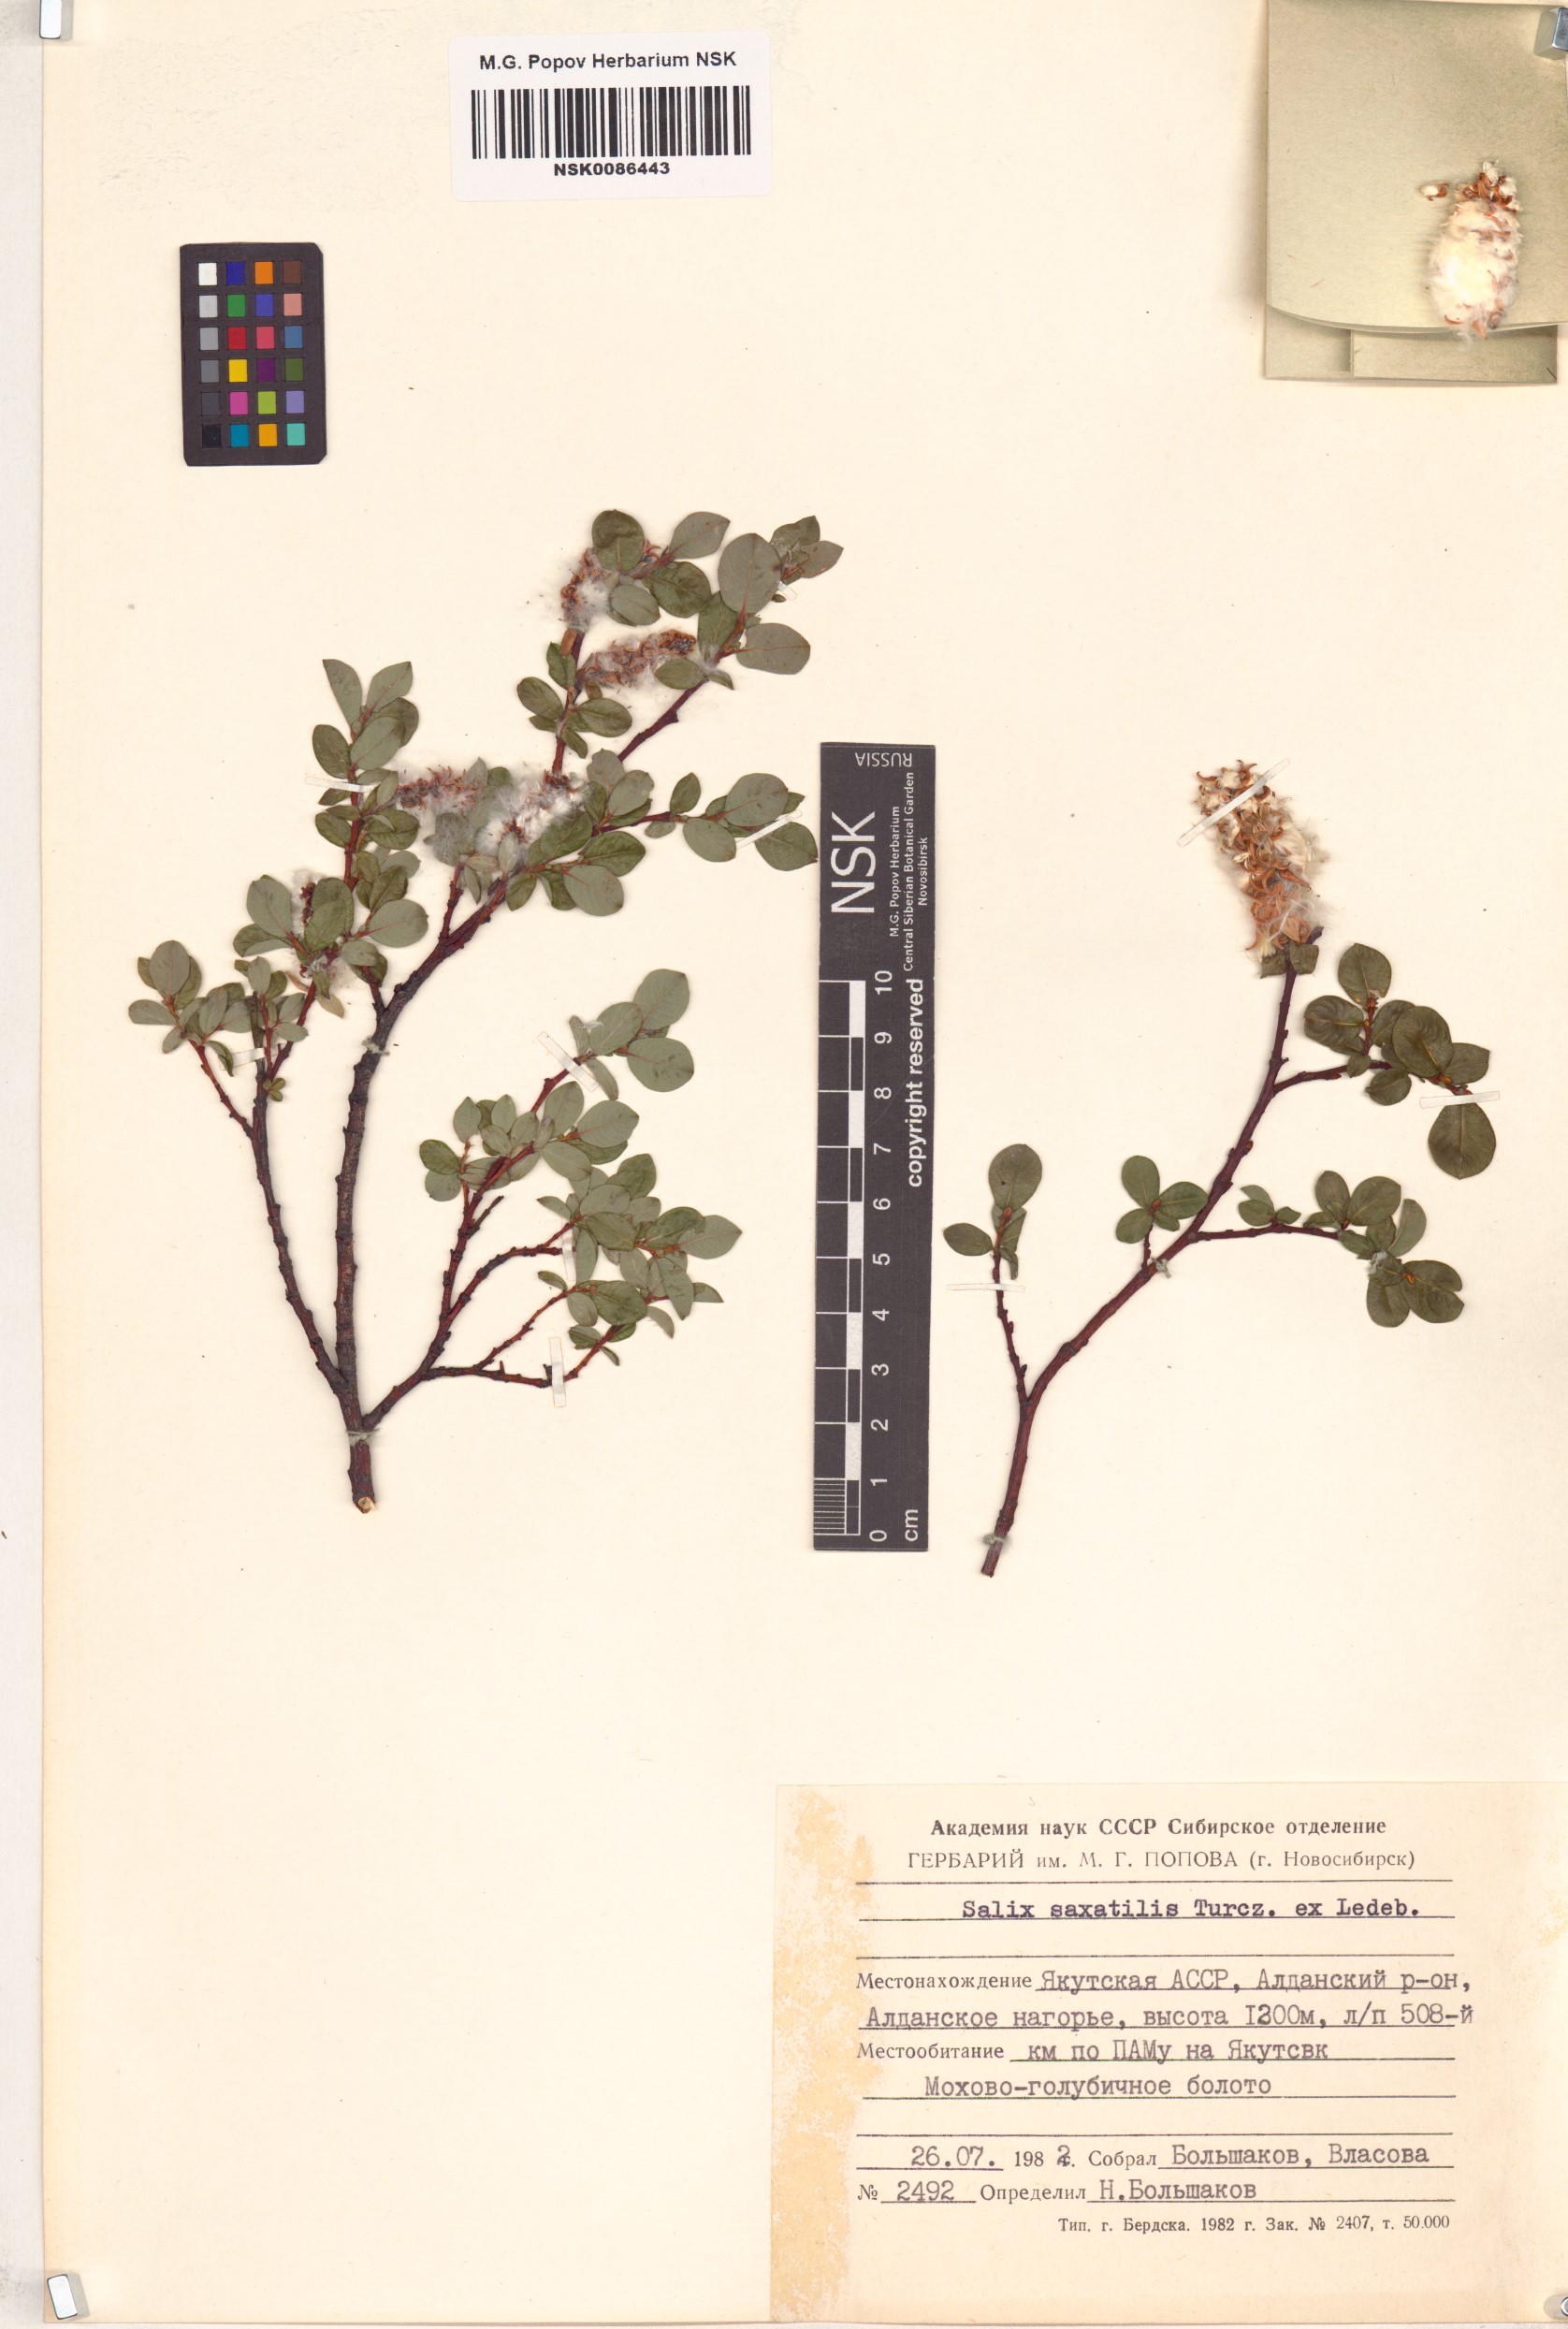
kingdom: Plantae
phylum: Tracheophyta
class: Magnoliopsida
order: Malpighiales
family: Salicaceae
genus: Salix
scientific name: Salix saxatilis
